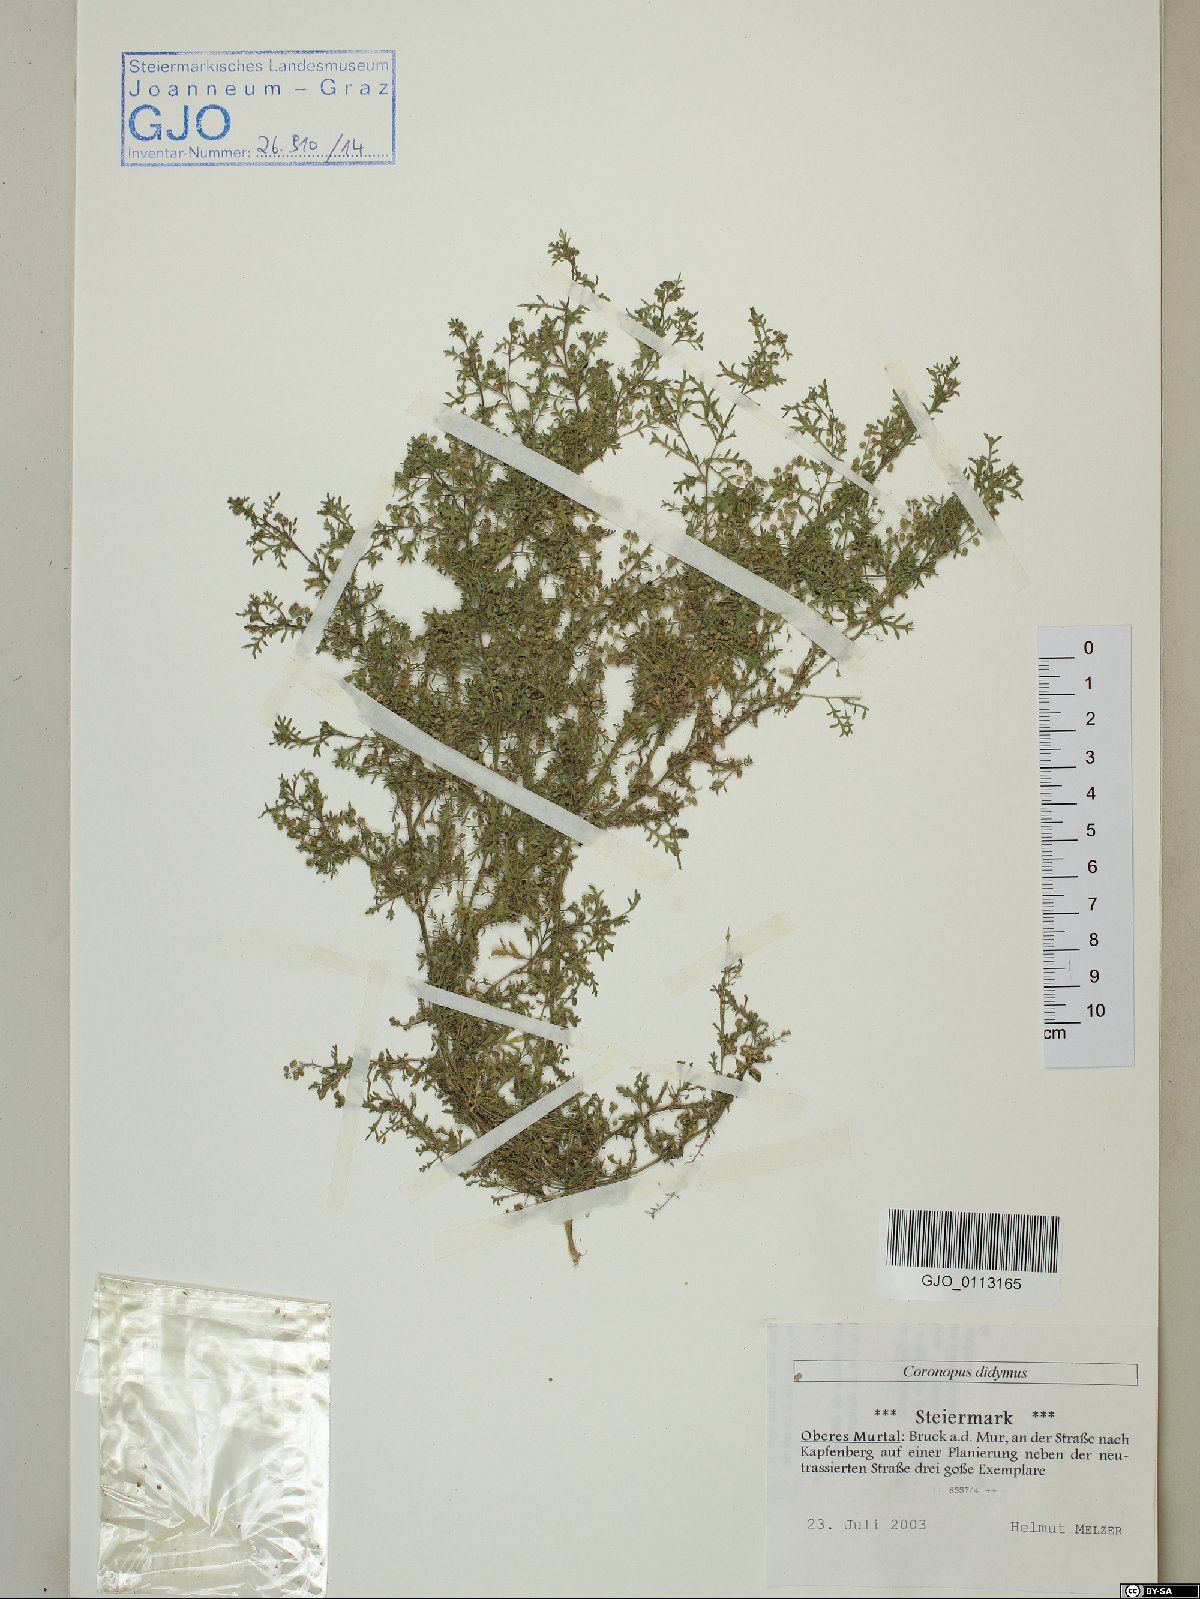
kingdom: Plantae
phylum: Tracheophyta
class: Magnoliopsida
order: Brassicales
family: Brassicaceae
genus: Lepidium
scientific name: Lepidium didymum
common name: Lesser swinecress
